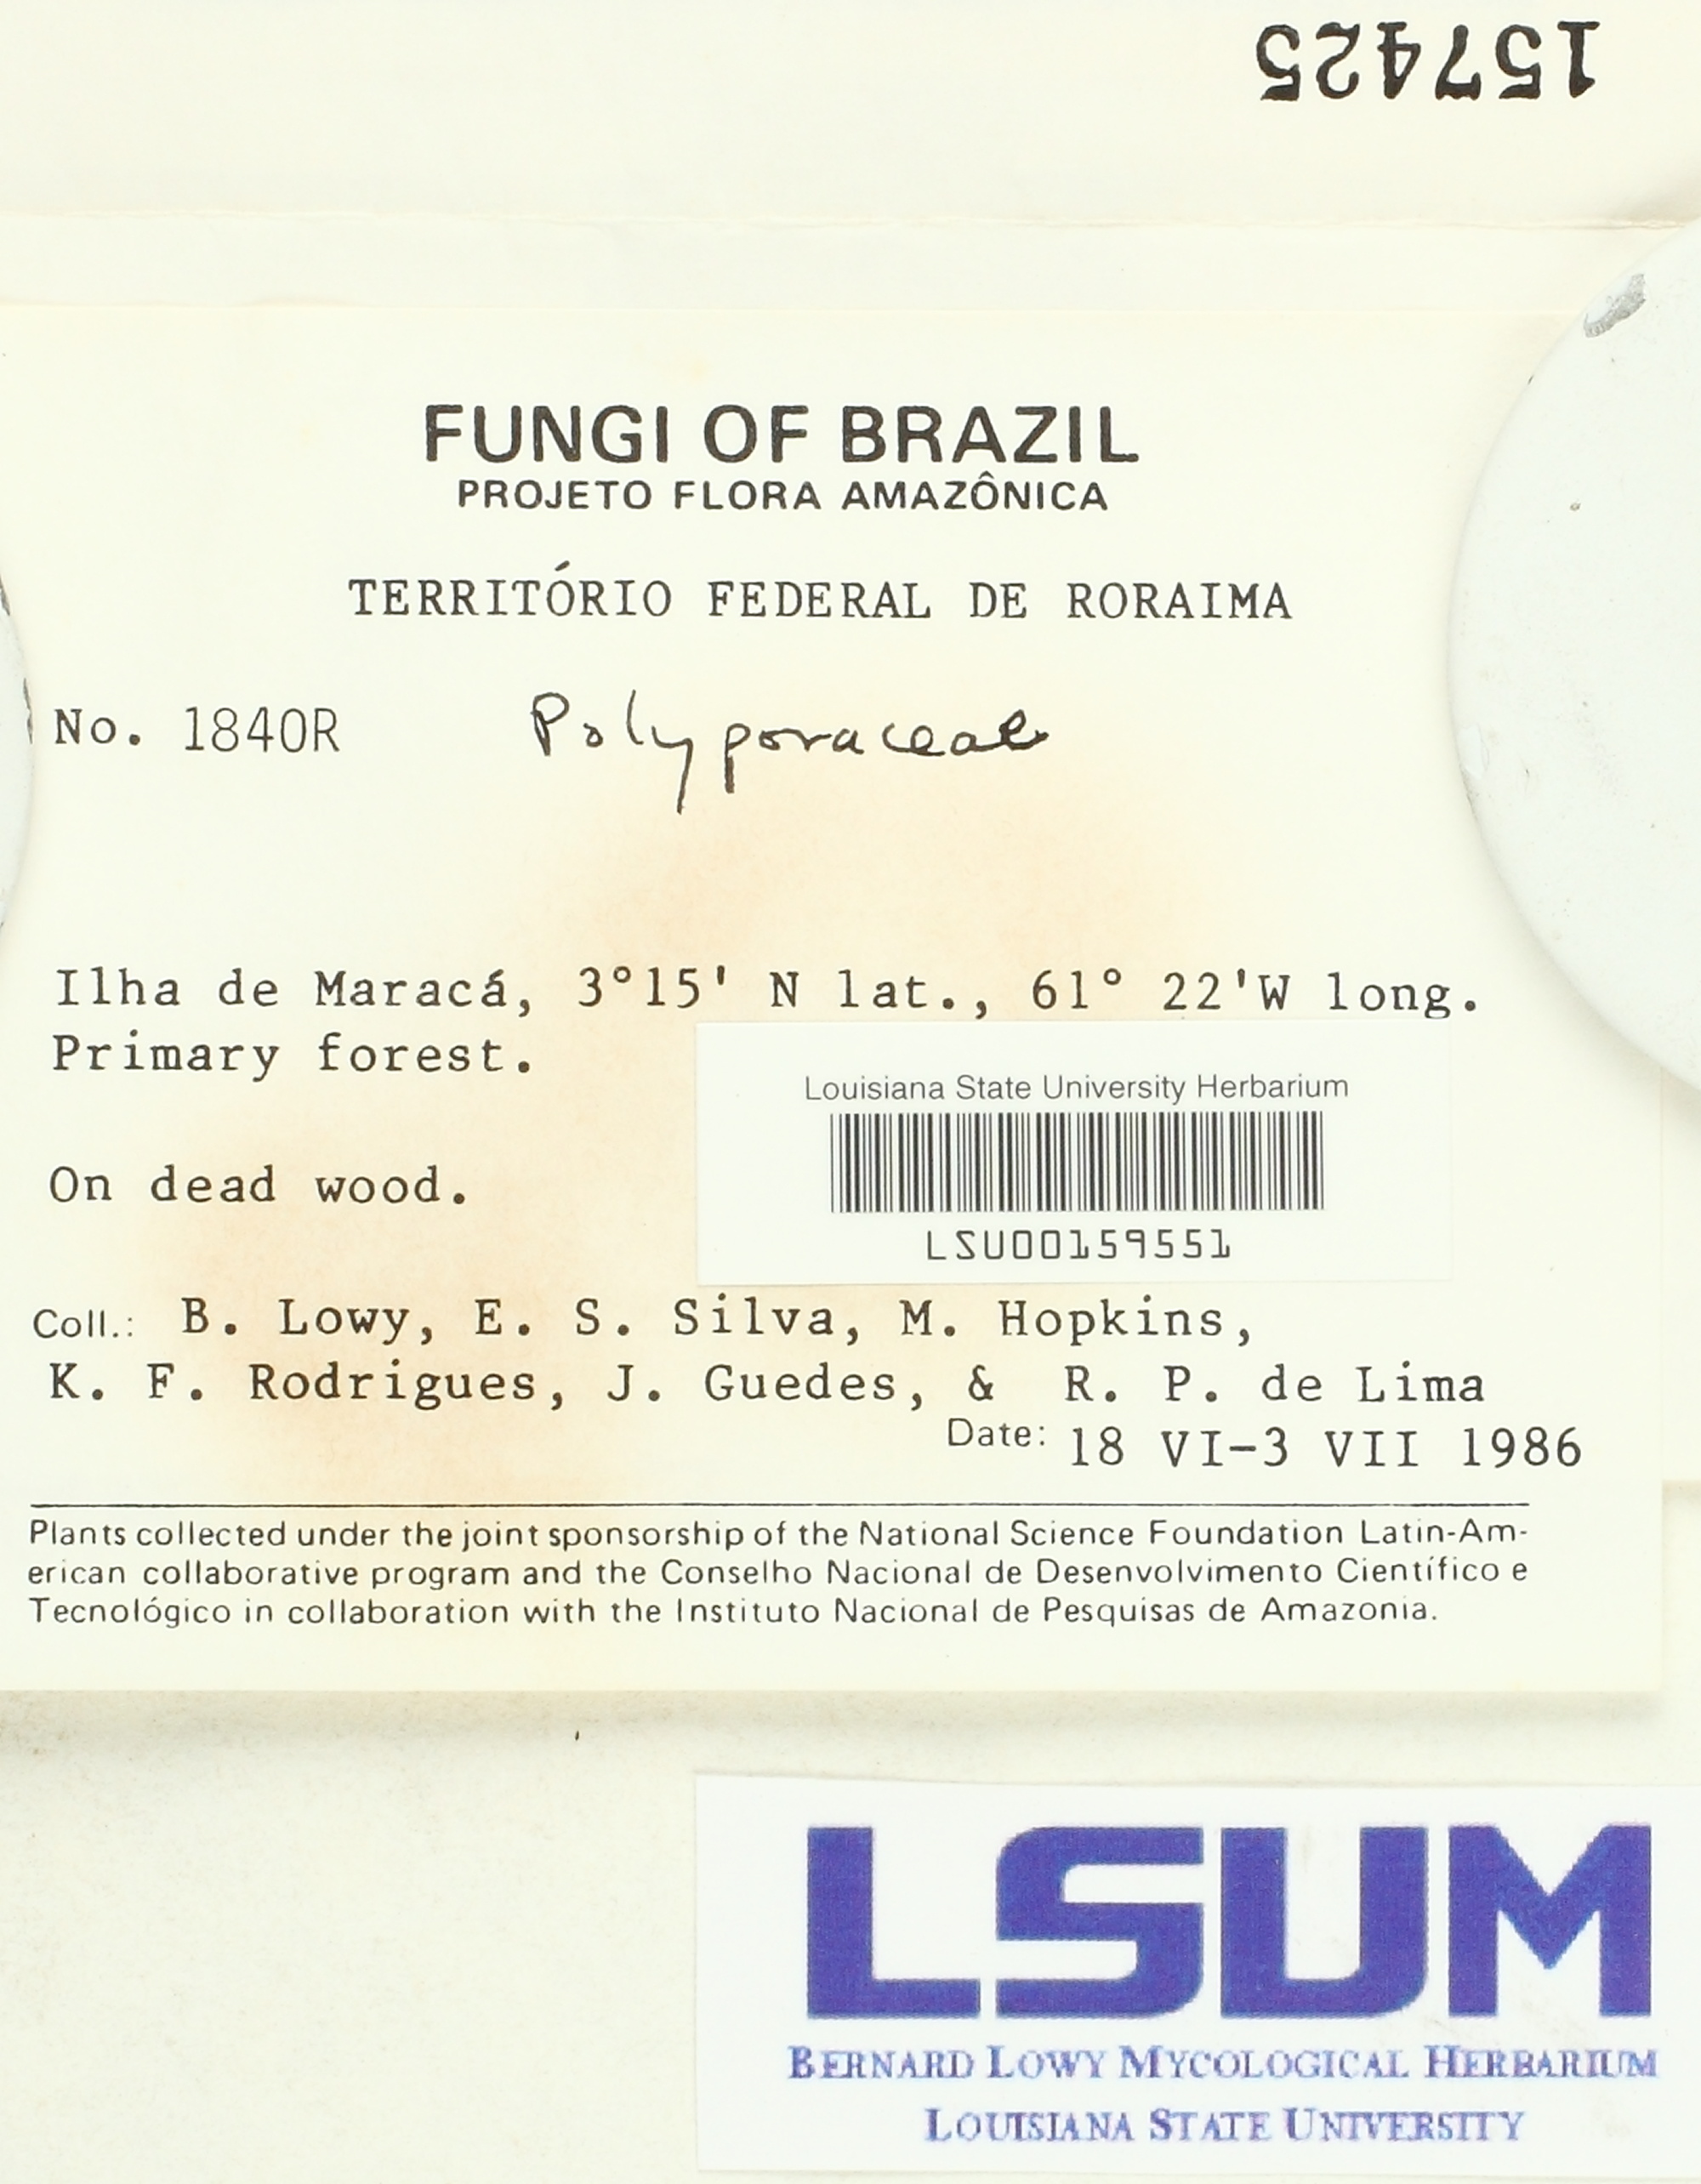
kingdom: Fungi
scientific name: Fungi
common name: Fungi
